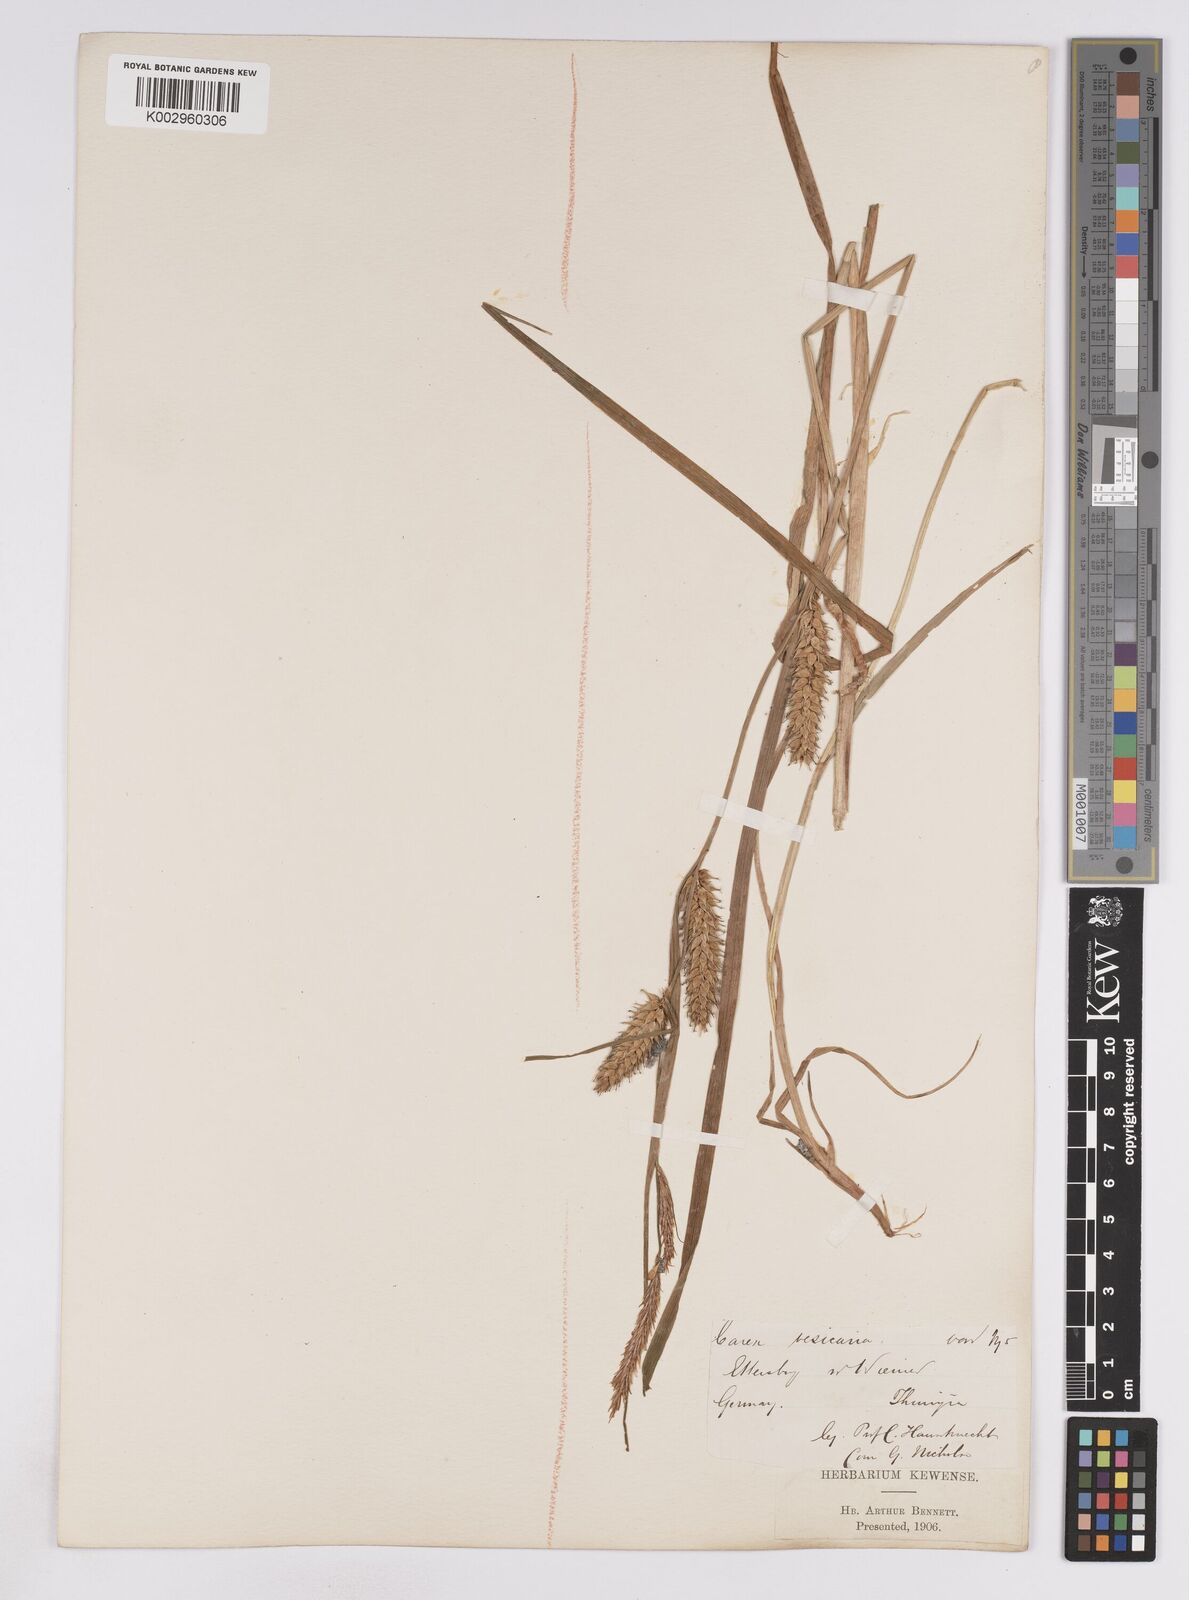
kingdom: Plantae
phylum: Tracheophyta
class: Liliopsida
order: Poales
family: Cyperaceae
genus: Carex
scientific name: Carex vesicaria
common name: Bladder-sedge
